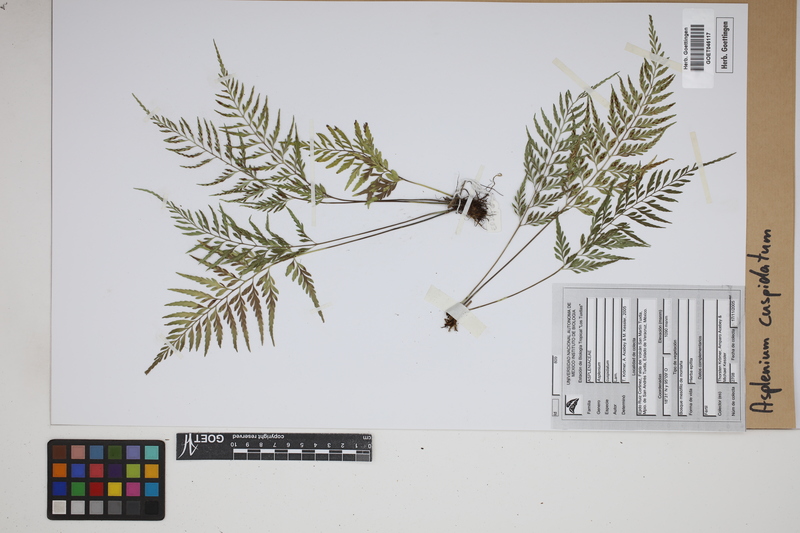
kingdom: Plantae
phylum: Tracheophyta
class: Polypodiopsida
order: Polypodiales
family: Aspleniaceae
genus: Asplenium
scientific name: Asplenium cuspidatum
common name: Eared spleenwort
